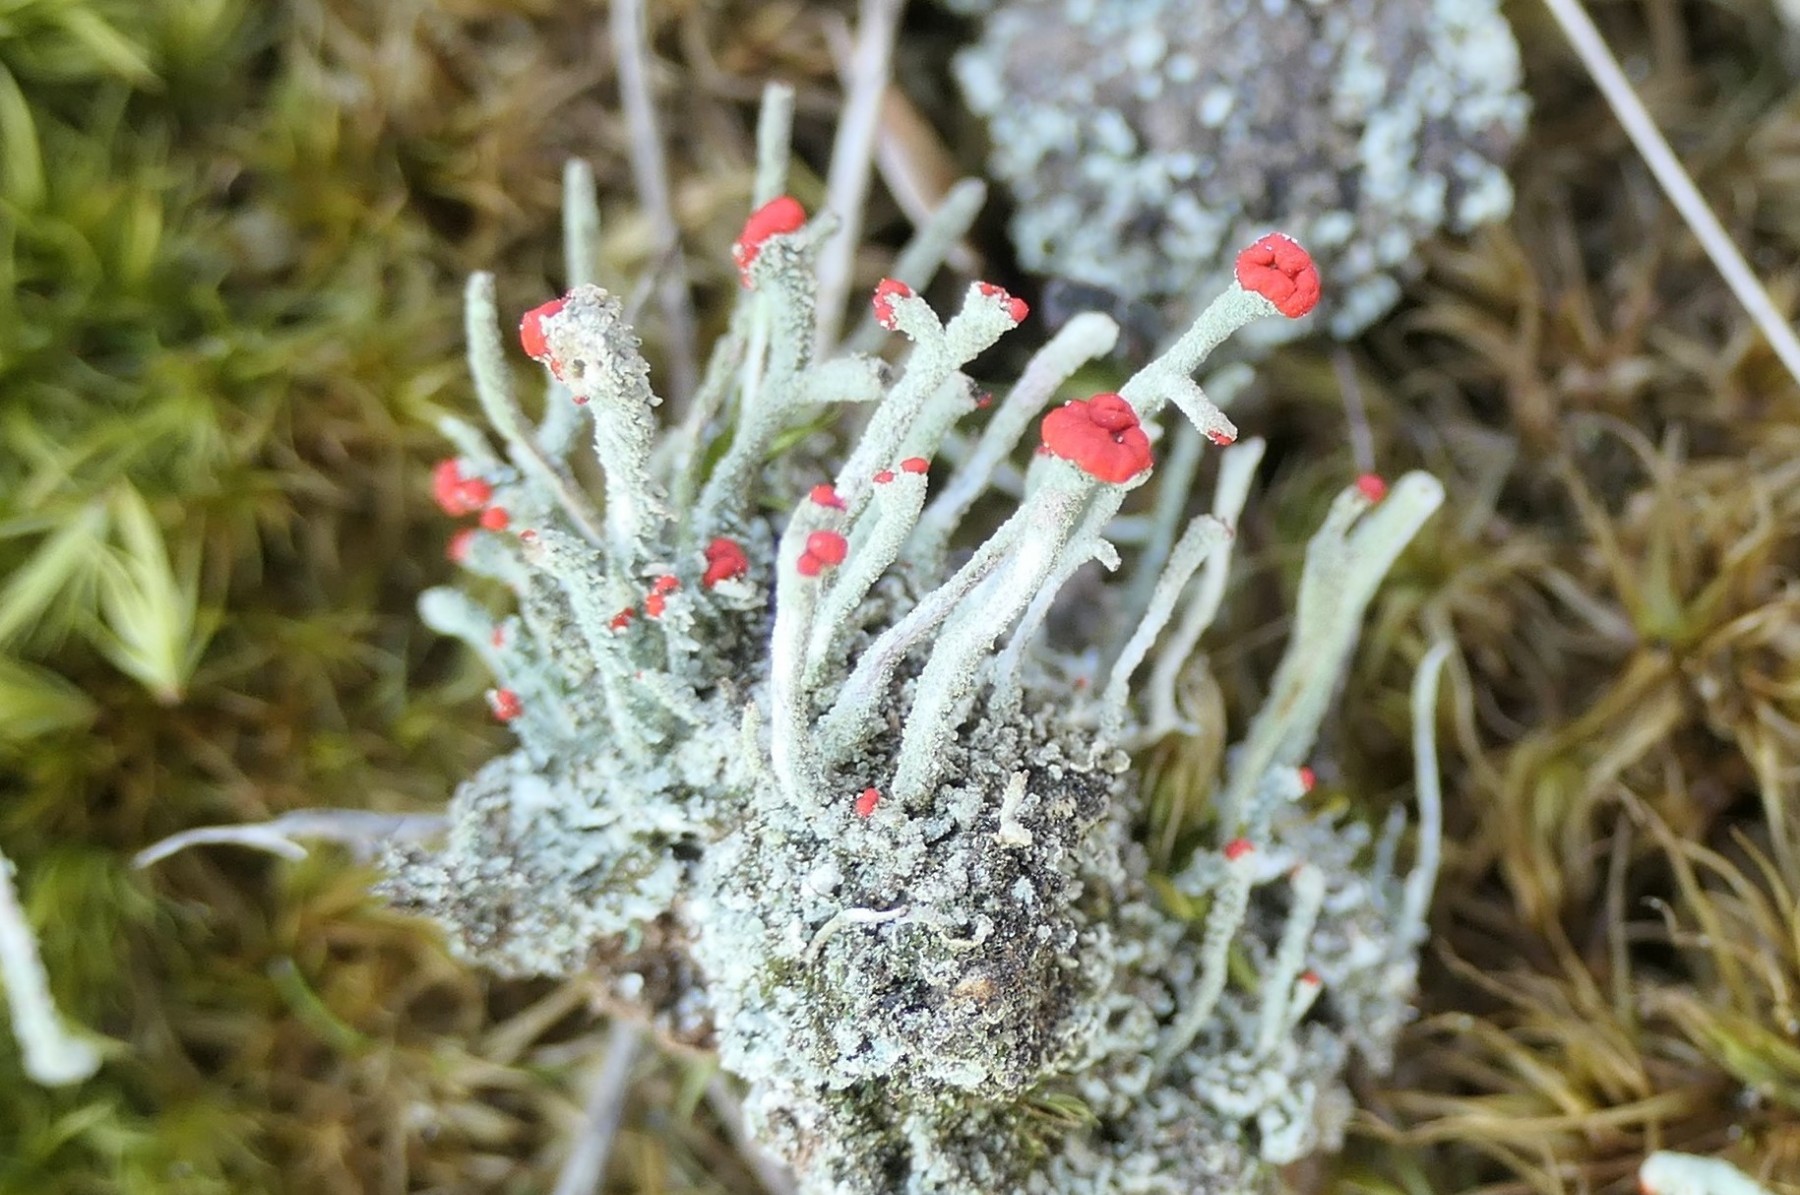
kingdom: Fungi
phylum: Ascomycota
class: Lecanoromycetes
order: Lecanorales
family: Cladoniaceae
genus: Cladonia
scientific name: Cladonia floerkeana
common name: lakrød bægerlav
